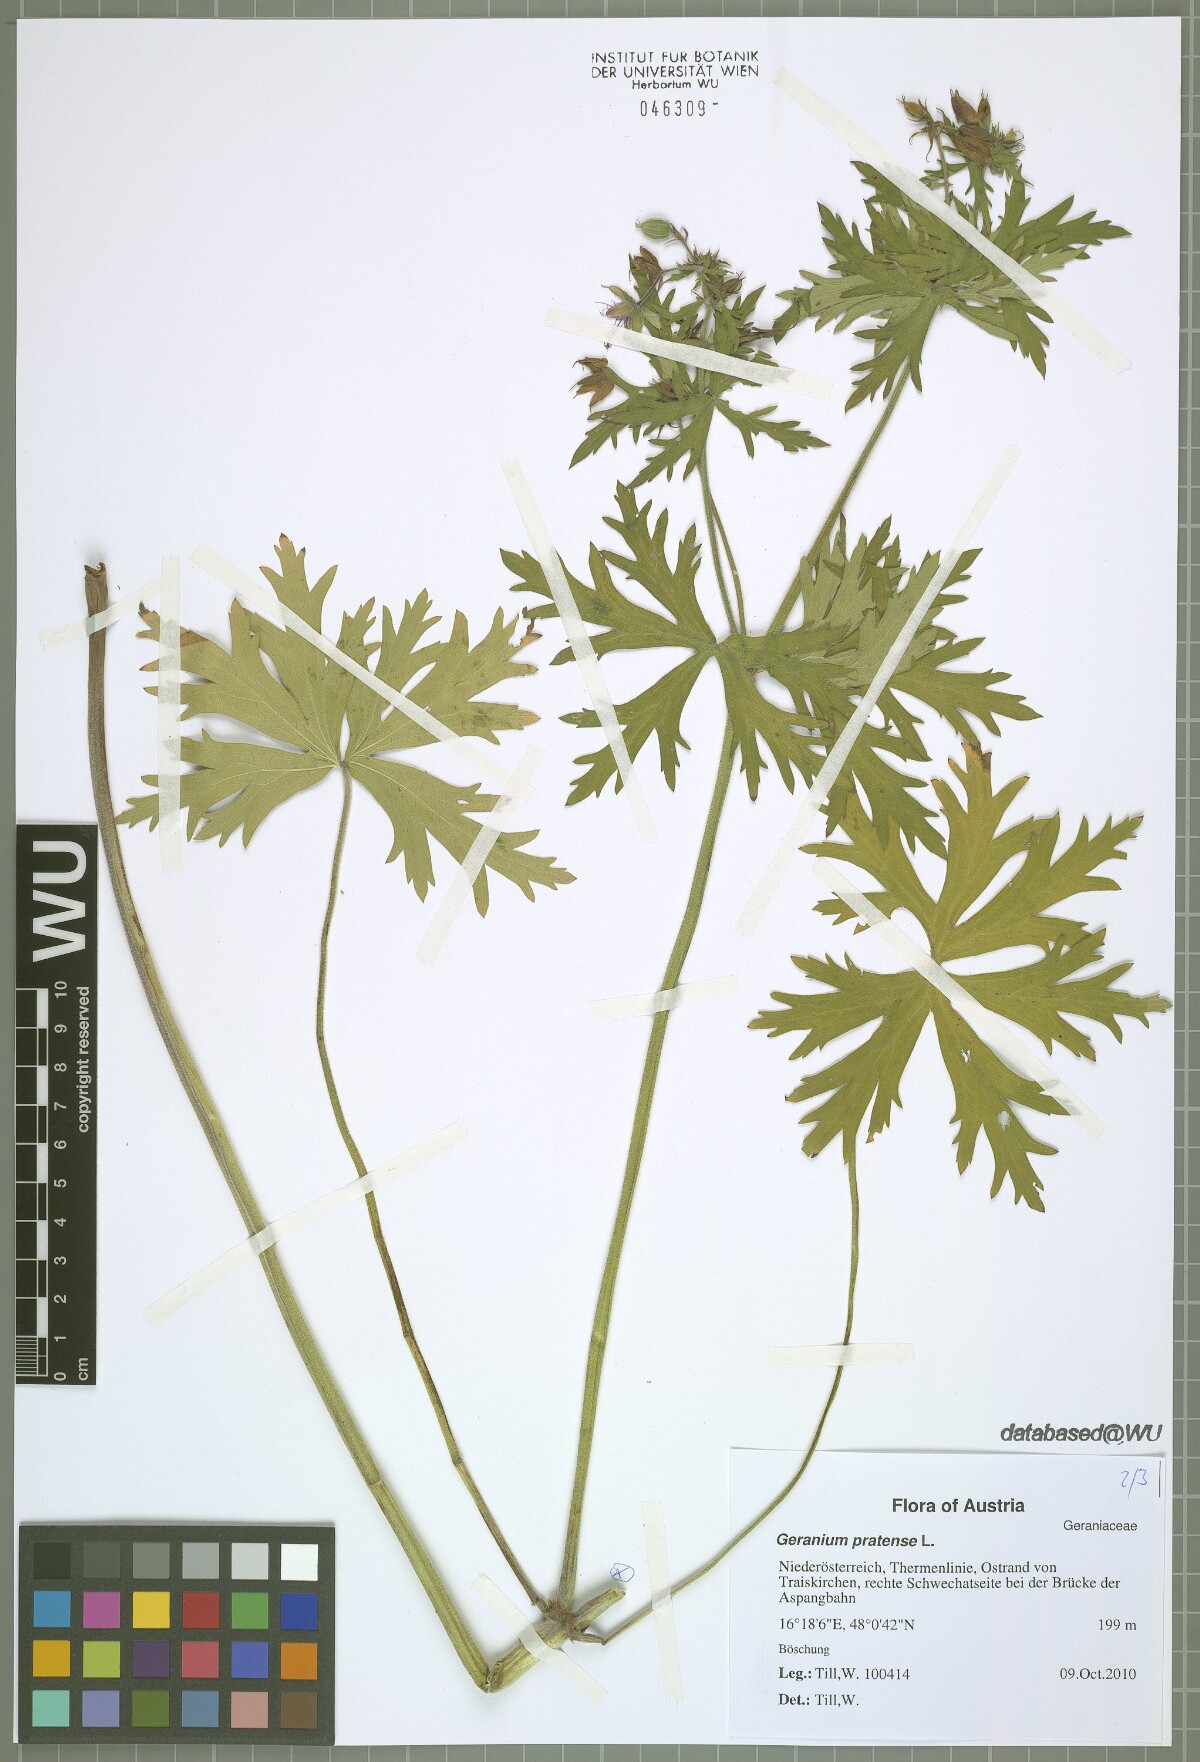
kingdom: Plantae
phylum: Tracheophyta
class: Magnoliopsida
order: Geraniales
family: Geraniaceae
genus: Geranium
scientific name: Geranium pratense
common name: Meadow crane's-bill
